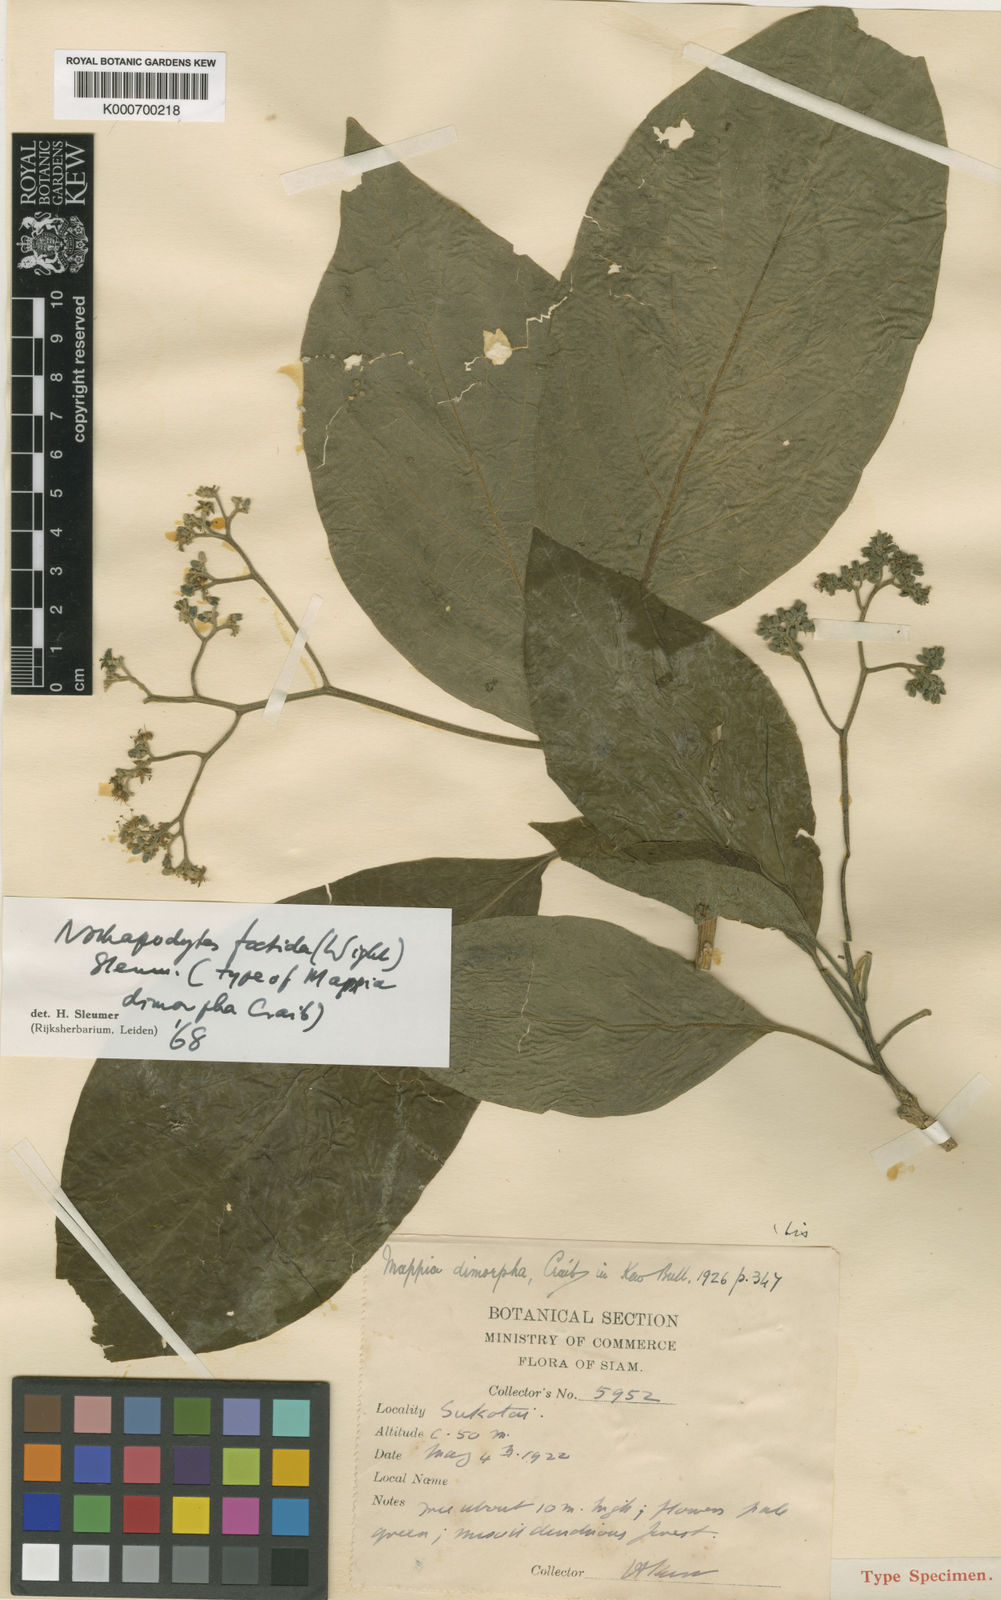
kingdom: Plantae
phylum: Tracheophyta
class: Magnoliopsida
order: Icacinales
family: Icacinaceae
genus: Nothapodytes
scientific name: Nothapodytes nimmoniana
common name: Nothapodytes
